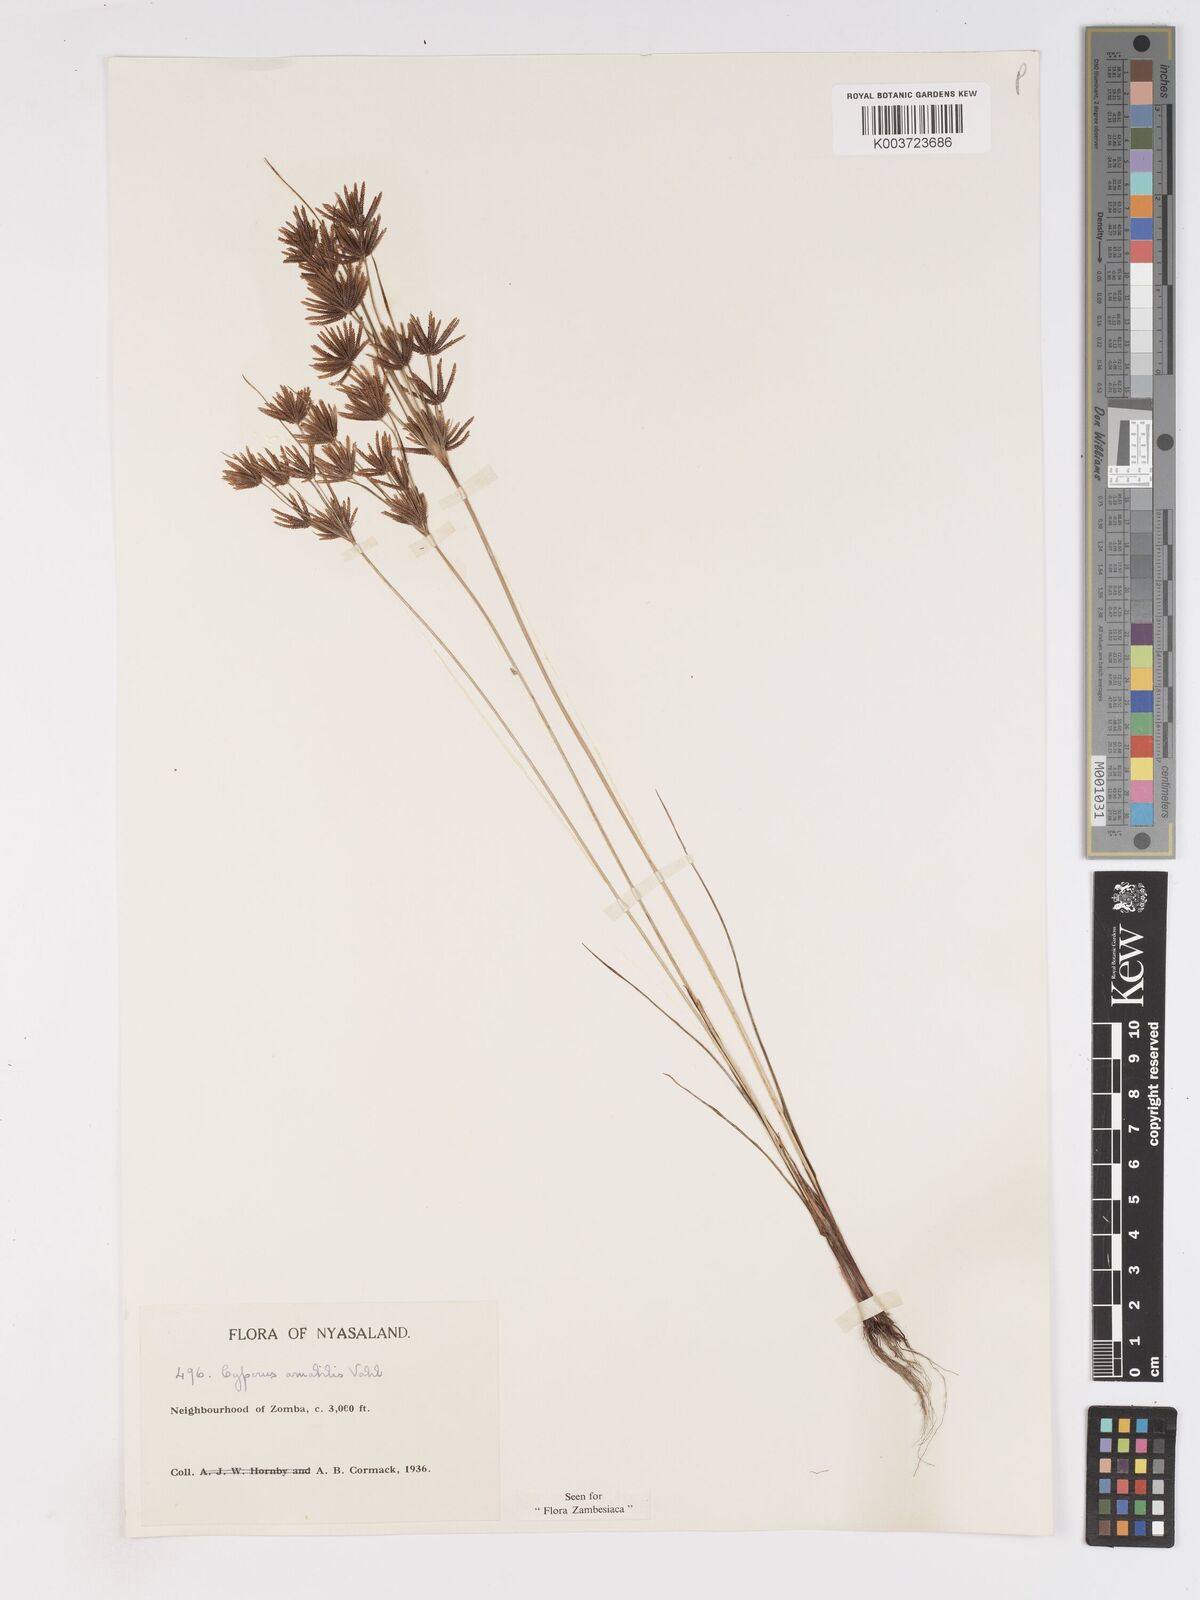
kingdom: Plantae
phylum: Tracheophyta
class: Liliopsida
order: Poales
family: Cyperaceae
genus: Cyperus
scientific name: Cyperus amabilis
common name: Foothill flat sedge
